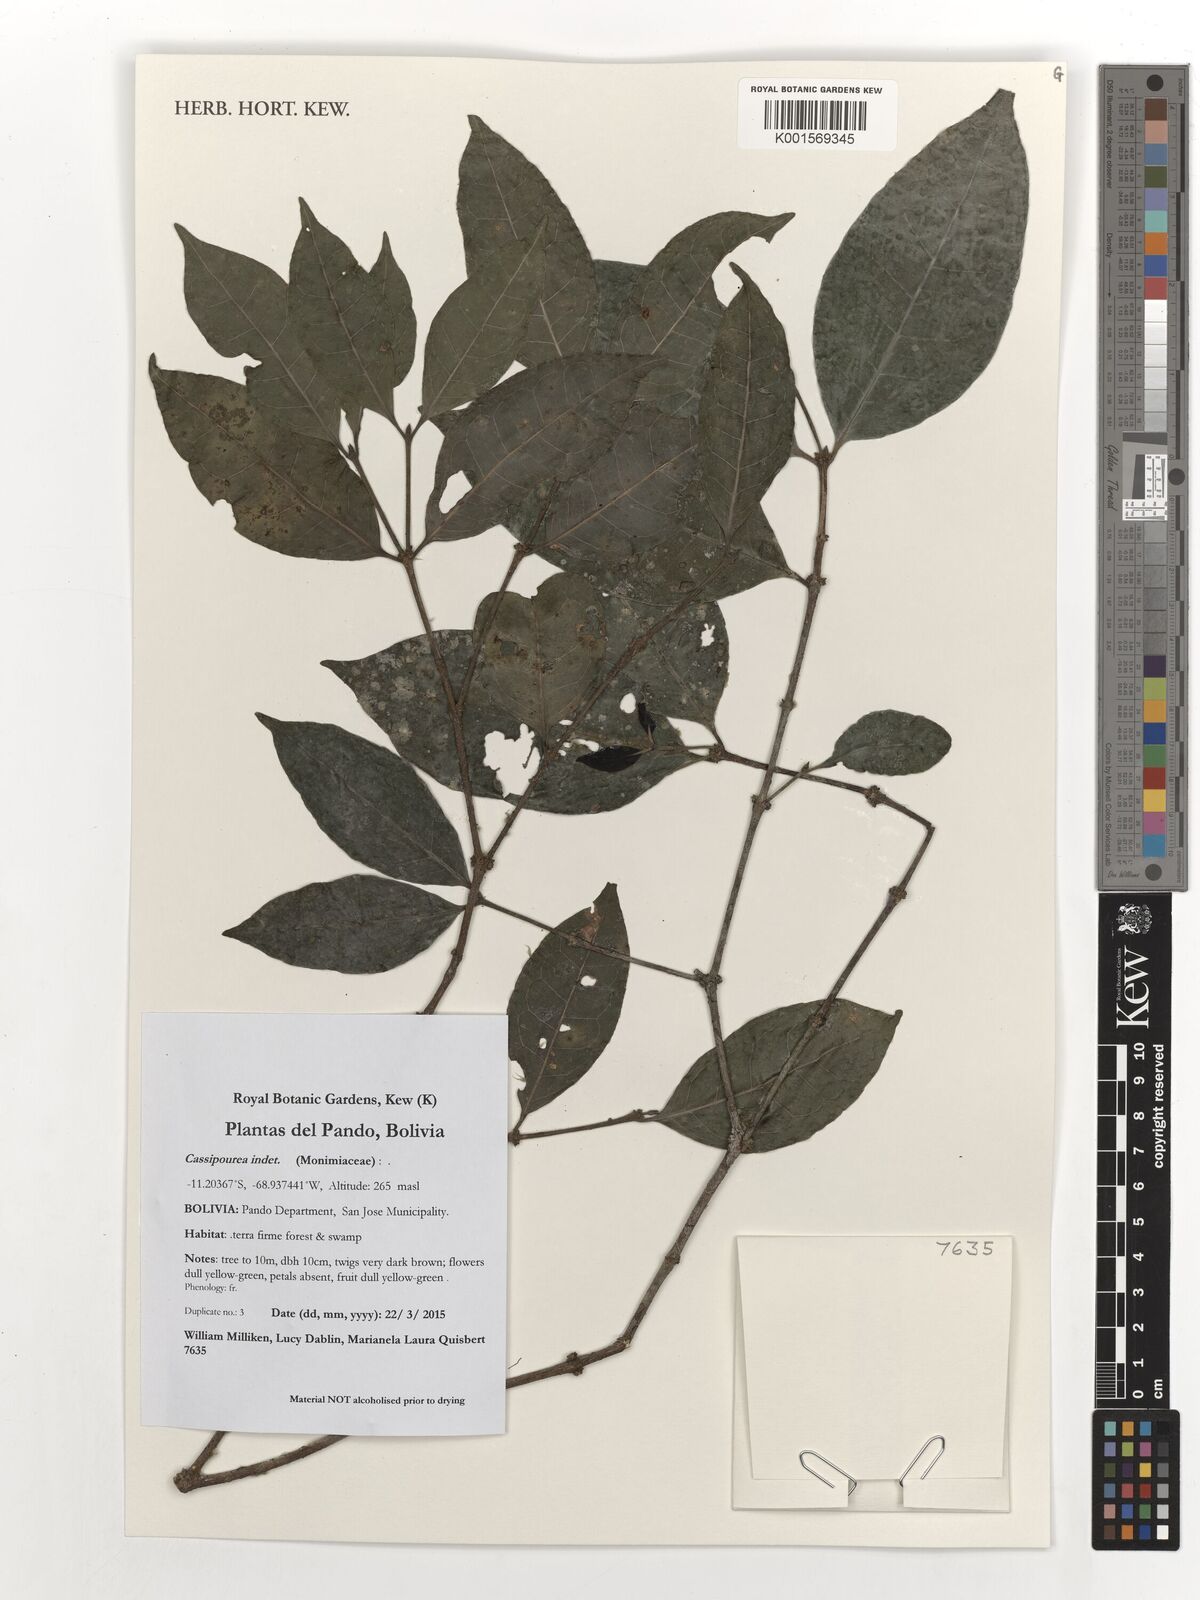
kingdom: Plantae
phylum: Tracheophyta
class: Magnoliopsida
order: Malpighiales
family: Rhizophoraceae
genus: Cassipourea
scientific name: Cassipourea
